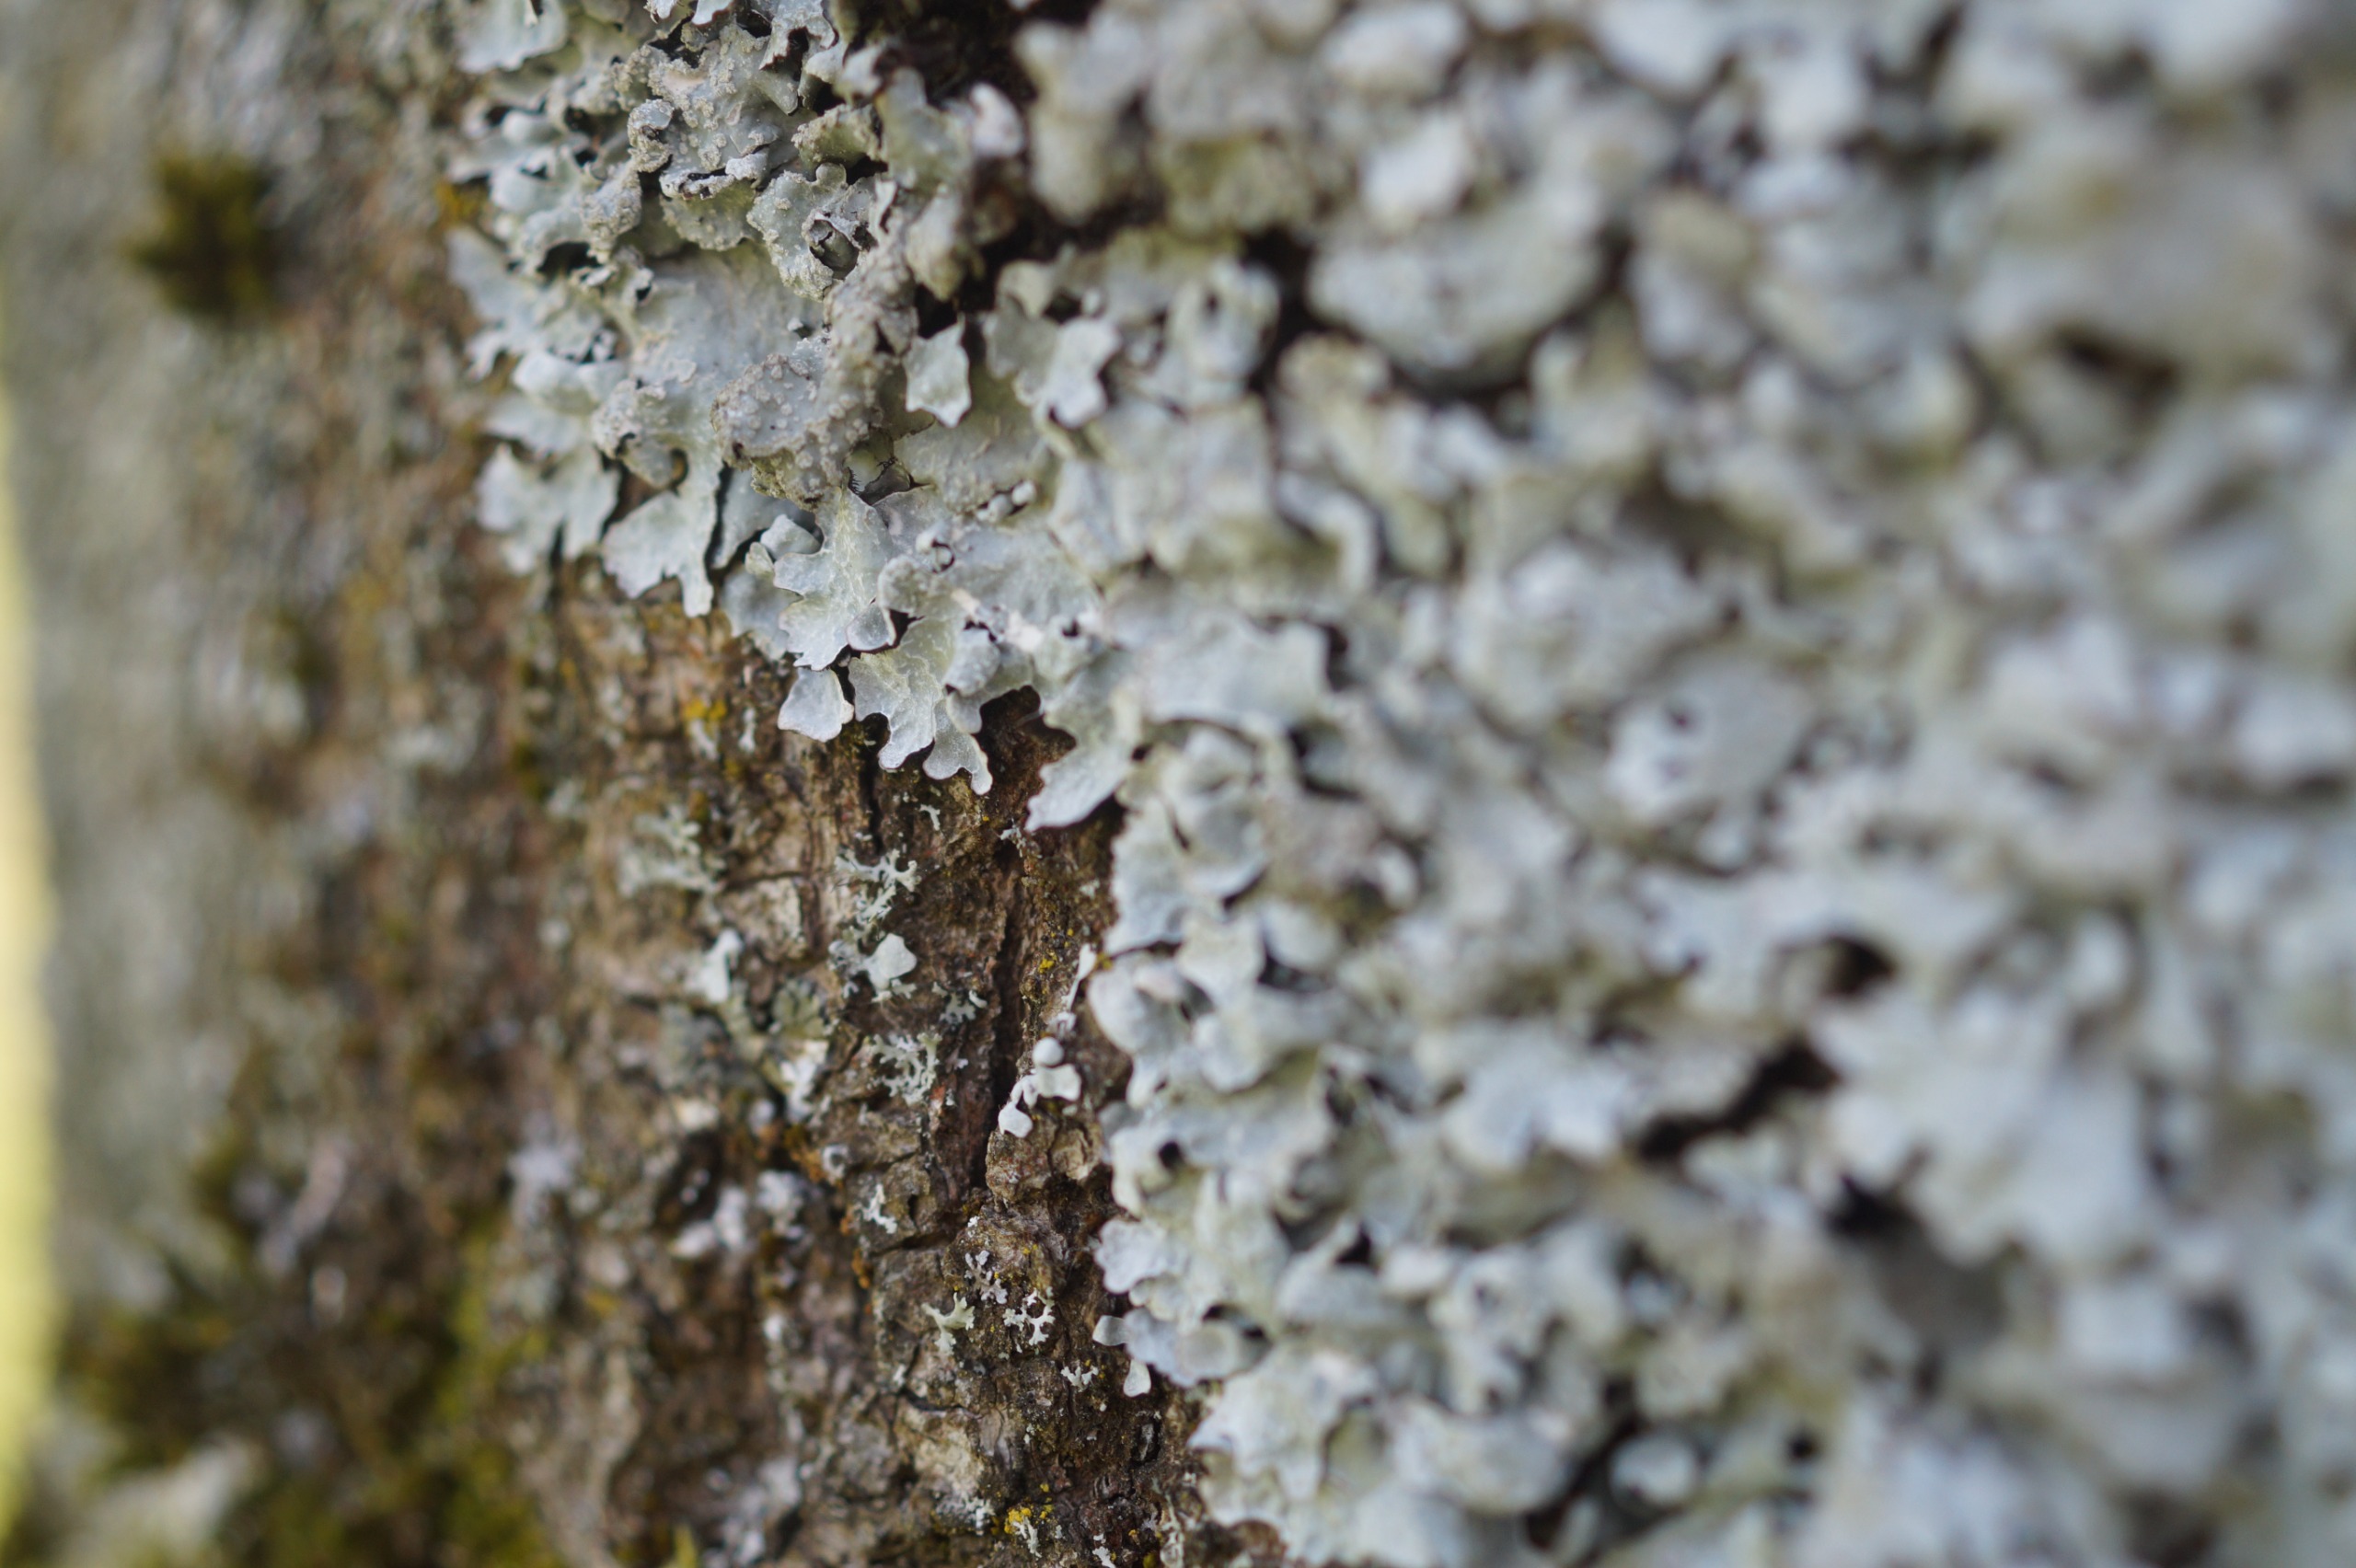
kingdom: Fungi
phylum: Ascomycota
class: Lecanoromycetes
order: Lecanorales
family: Parmeliaceae
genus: Parmelia
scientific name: Parmelia sulcata
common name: Rynket skållav
